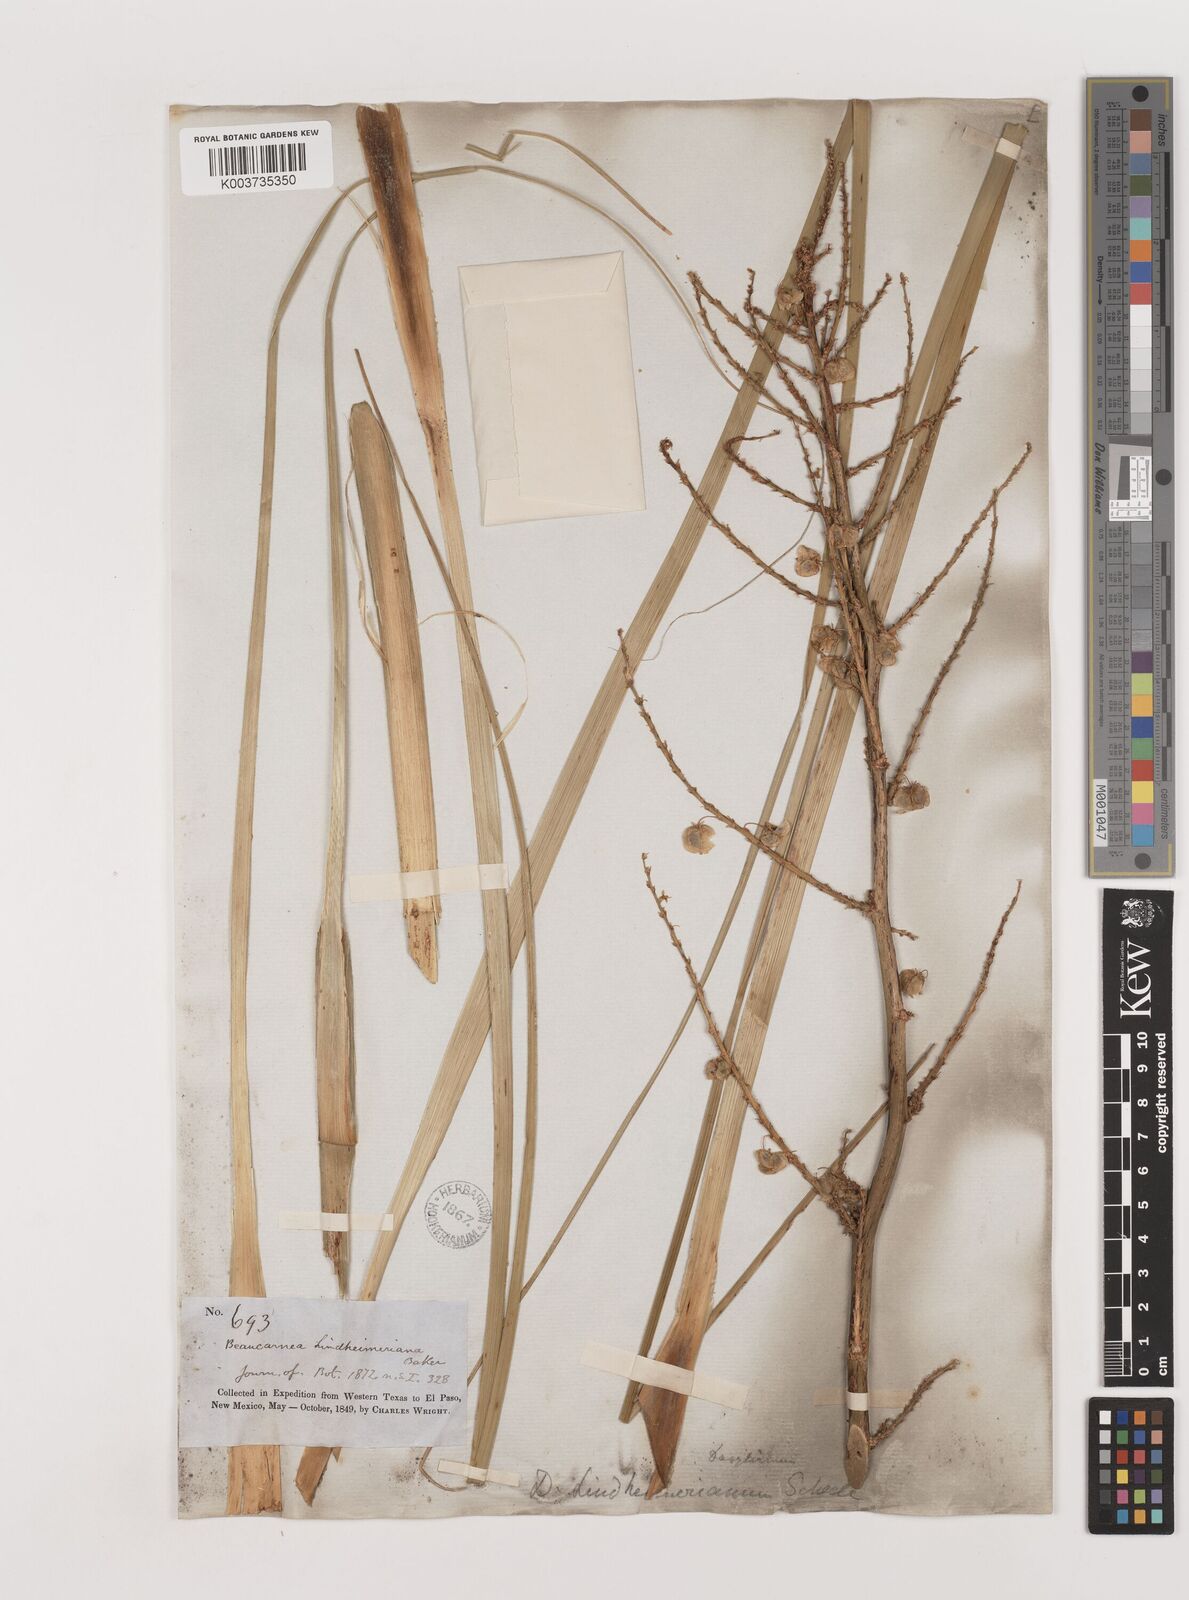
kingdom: Plantae
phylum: Tracheophyta
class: Liliopsida
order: Asparagales
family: Asparagaceae
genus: Nolina
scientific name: Nolina lindheimeriana
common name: Lindheimer's bear-grass
